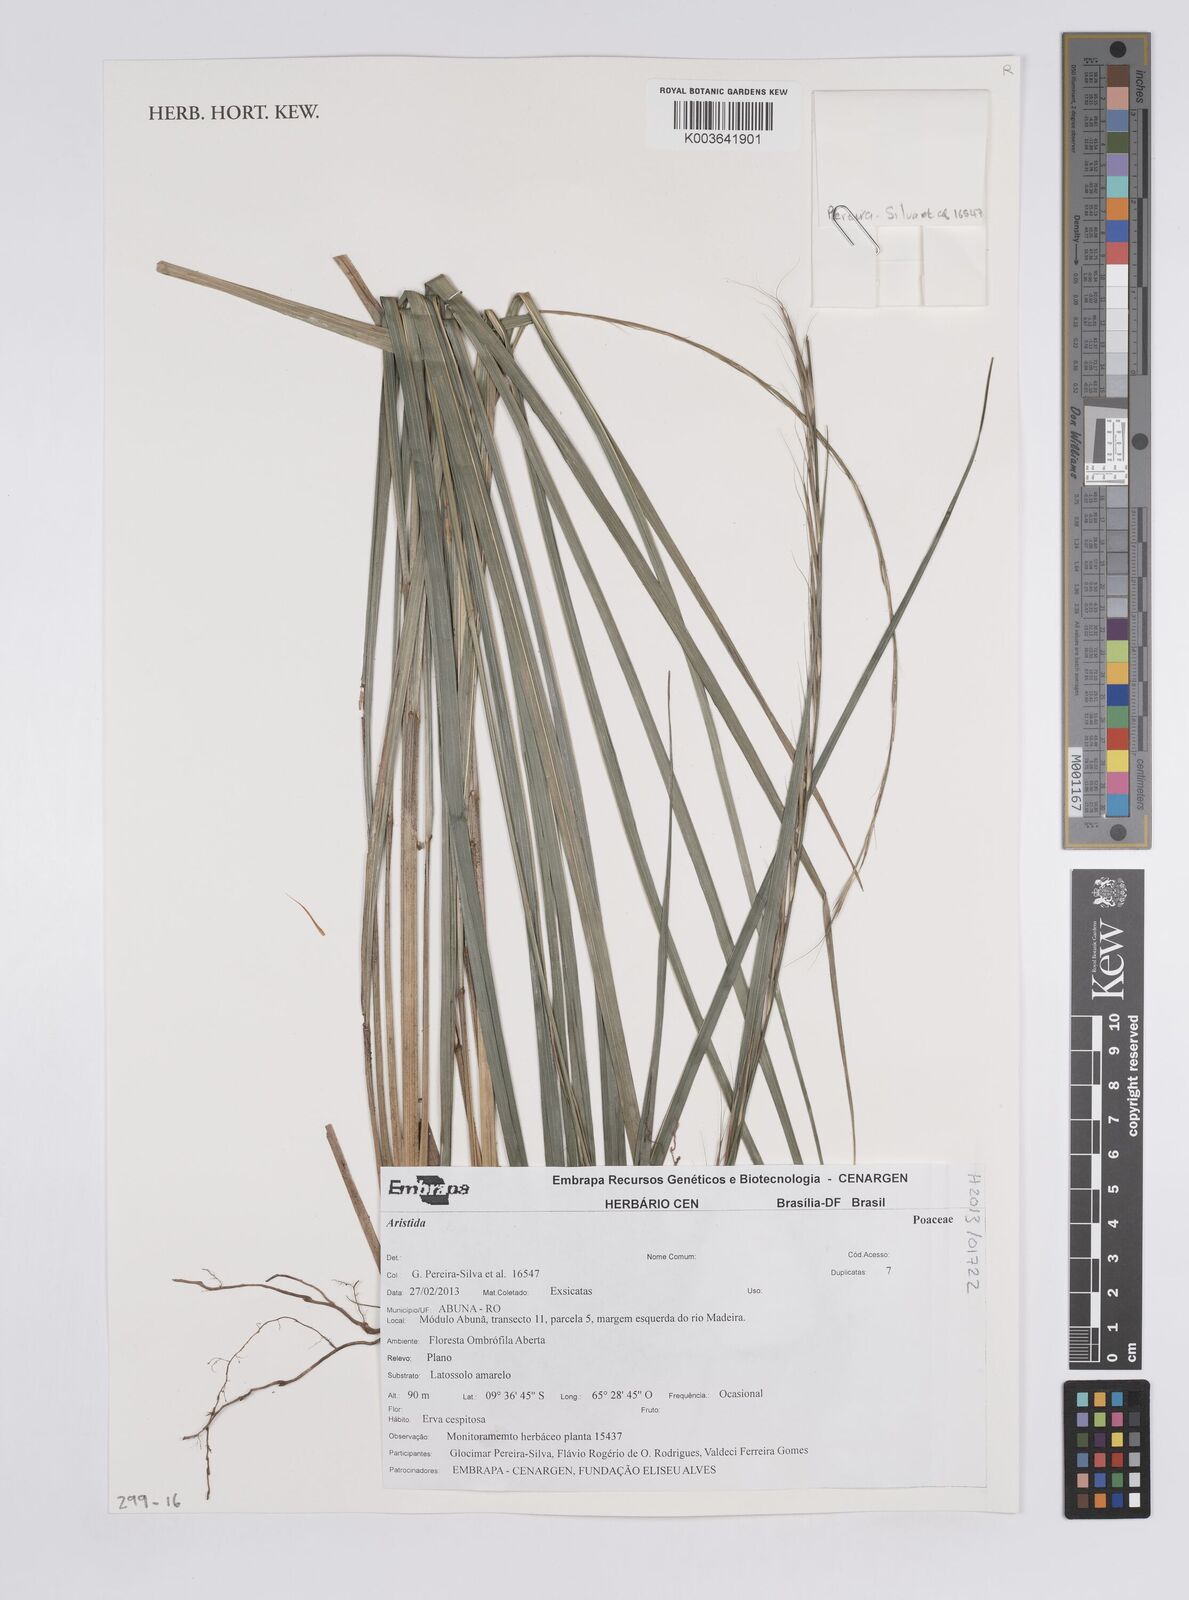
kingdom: Plantae
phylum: Tracheophyta
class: Liliopsida
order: Poales
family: Poaceae
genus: Aristida
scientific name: Aristida
